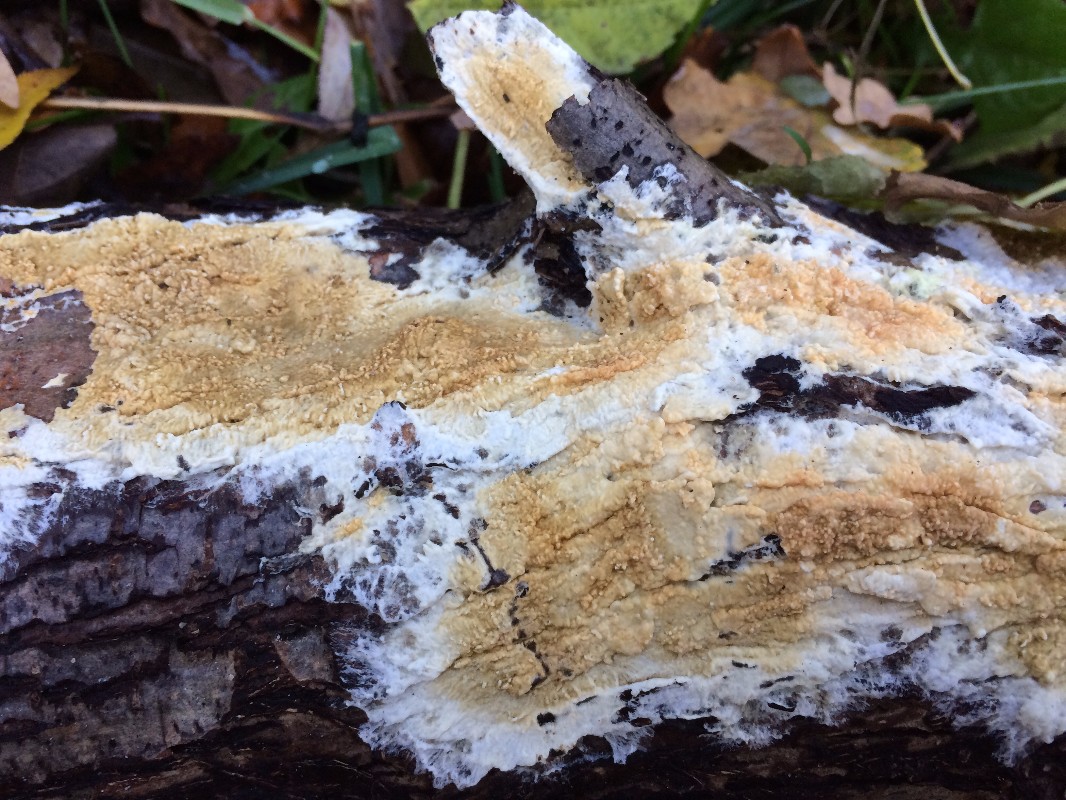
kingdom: Fungi
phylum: Basidiomycota
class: Agaricomycetes
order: Boletales
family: Coniophoraceae
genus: Coniophora
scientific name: Coniophora puteana
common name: gul tømmersvamp
